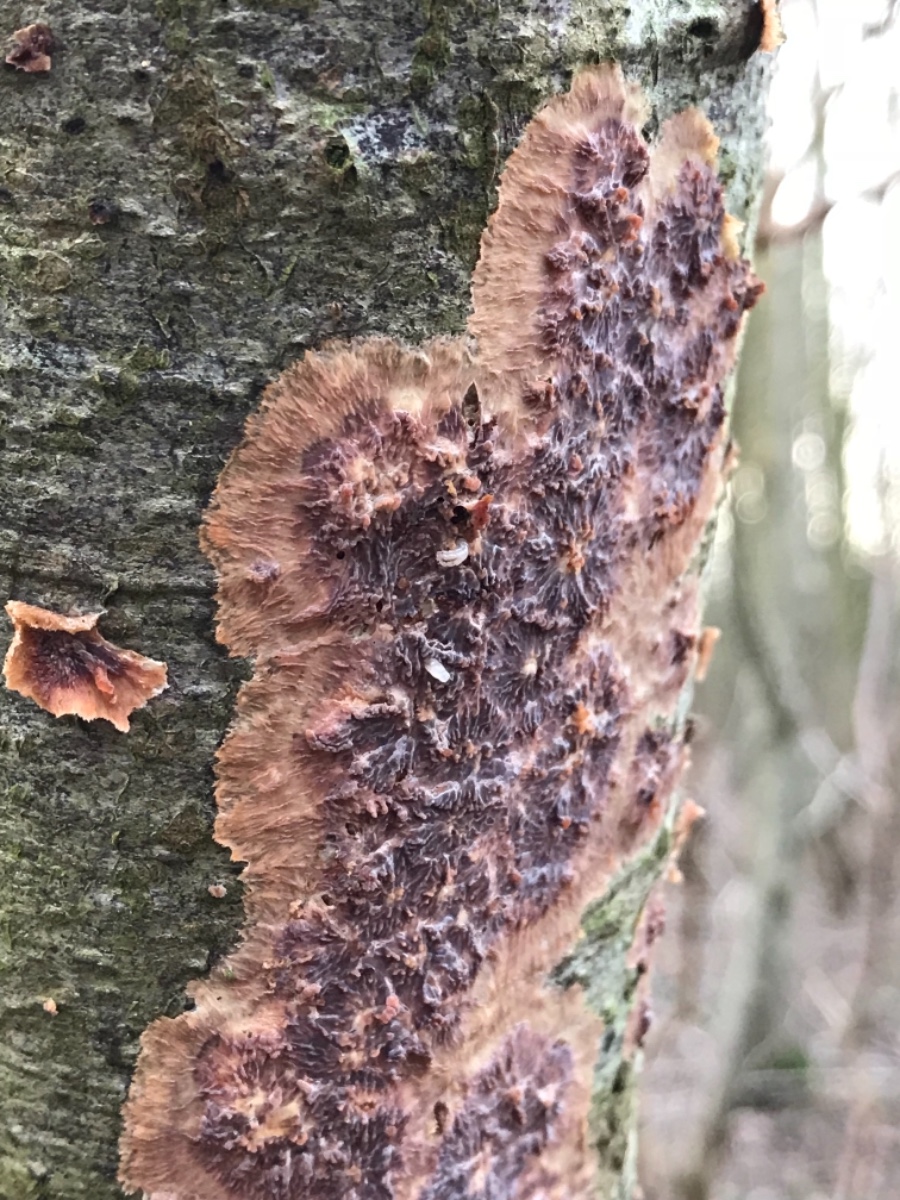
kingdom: Fungi
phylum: Basidiomycota
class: Agaricomycetes
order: Polyporales
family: Meruliaceae
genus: Phlebia
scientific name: Phlebia radiata
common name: stråle-åresvamp
